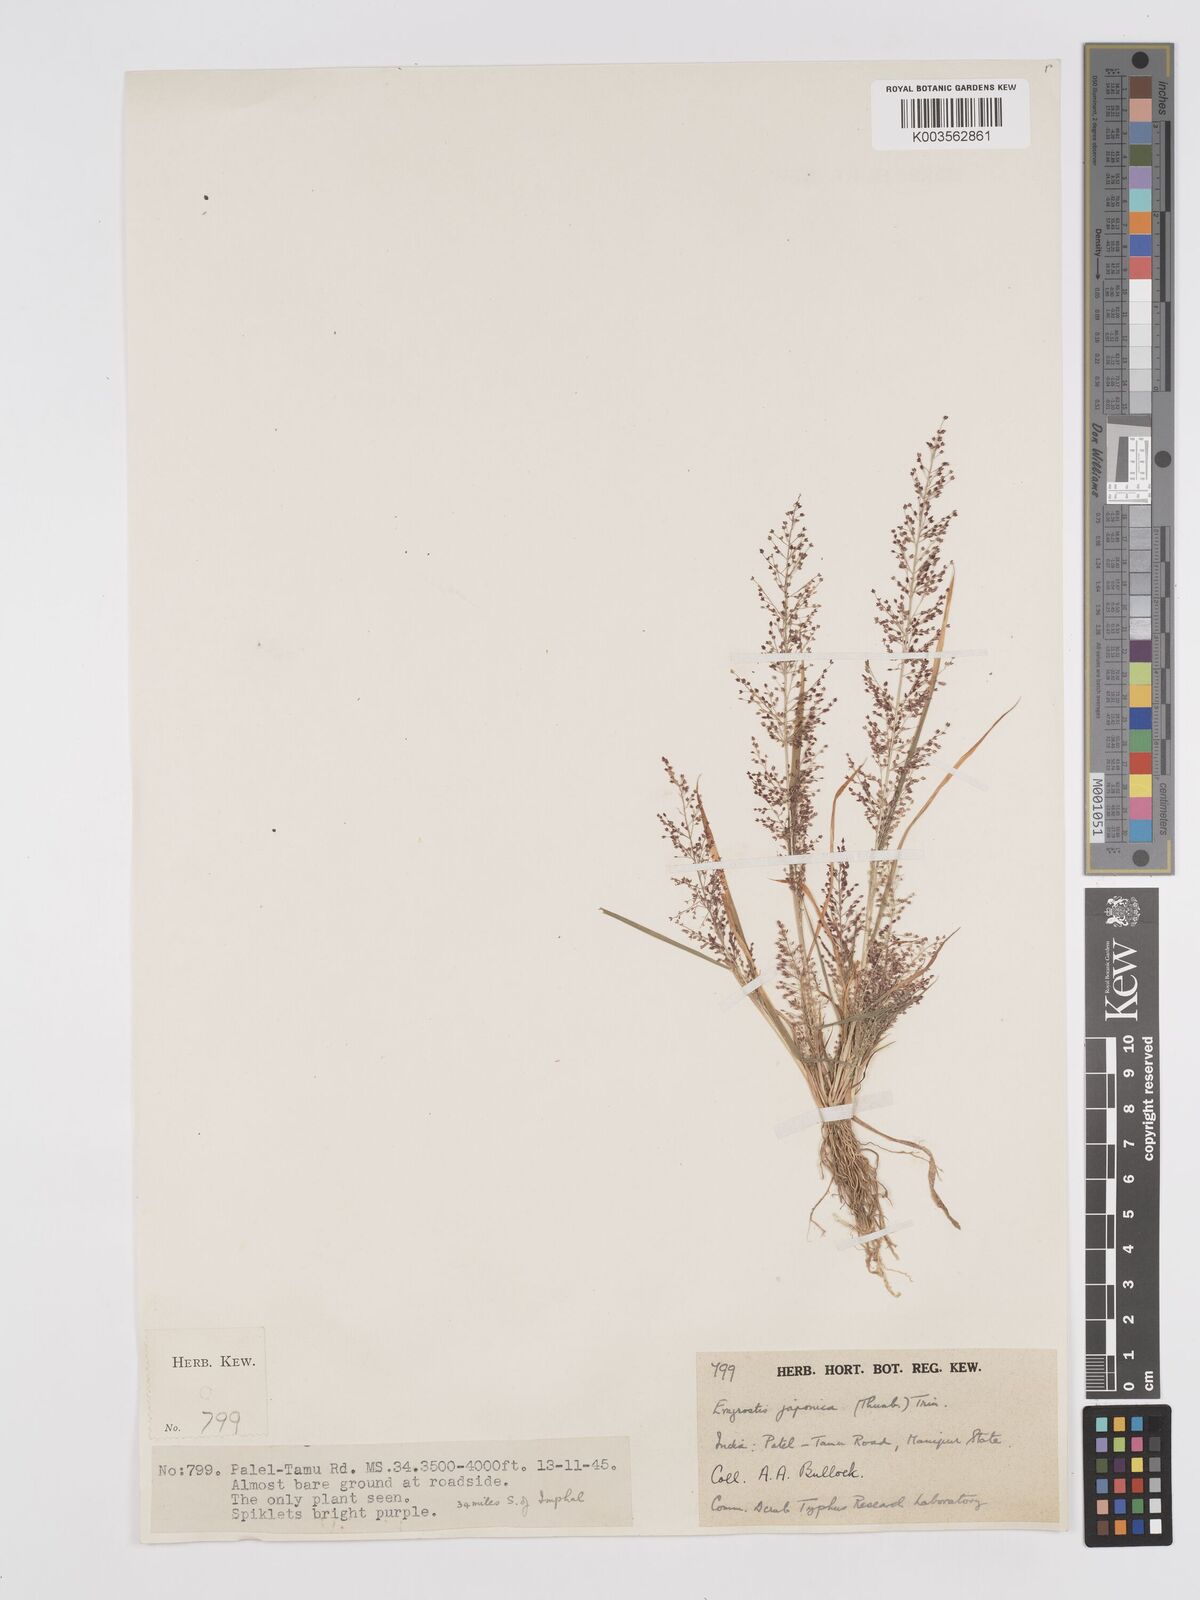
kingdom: Plantae
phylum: Tracheophyta
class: Liliopsida
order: Poales
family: Poaceae
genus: Eragrostis
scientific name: Eragrostis japonica
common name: Pond lovegrass
